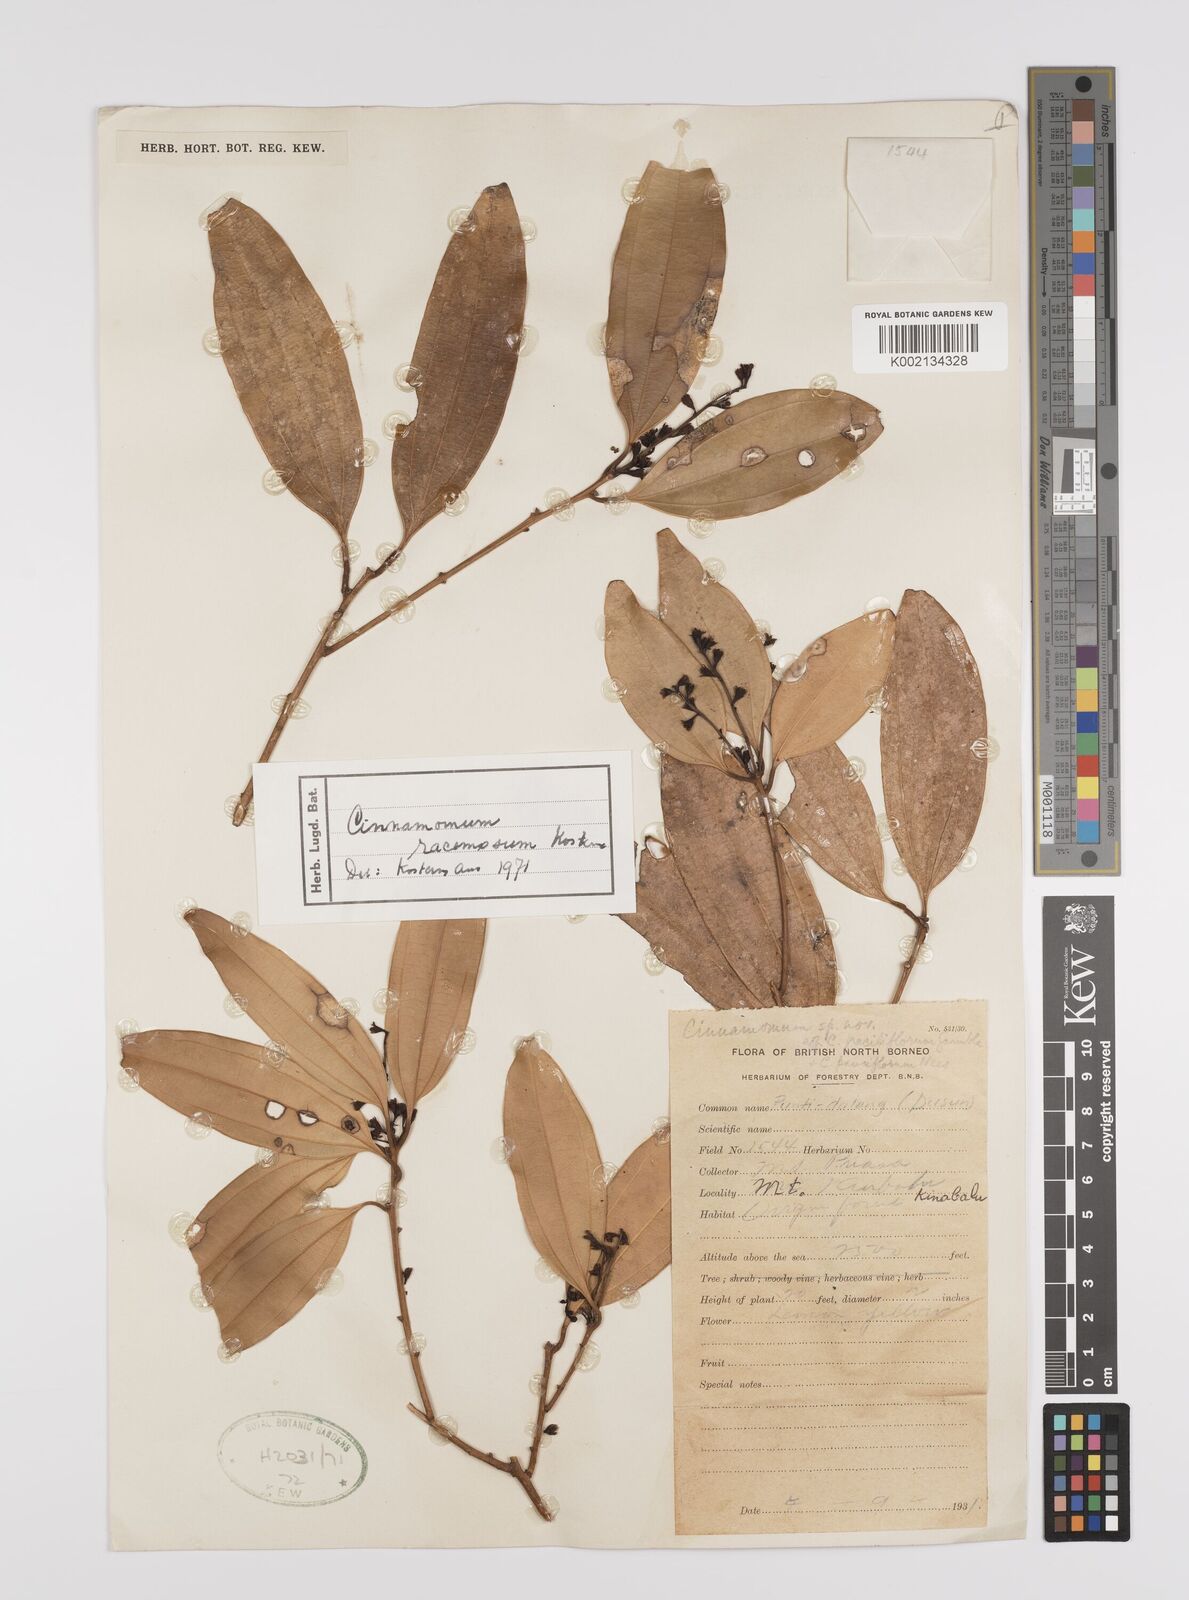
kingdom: Plantae
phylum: Tracheophyta
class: Magnoliopsida
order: Laurales
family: Lauraceae
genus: Cinnamomum
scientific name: Cinnamomum racemosum
